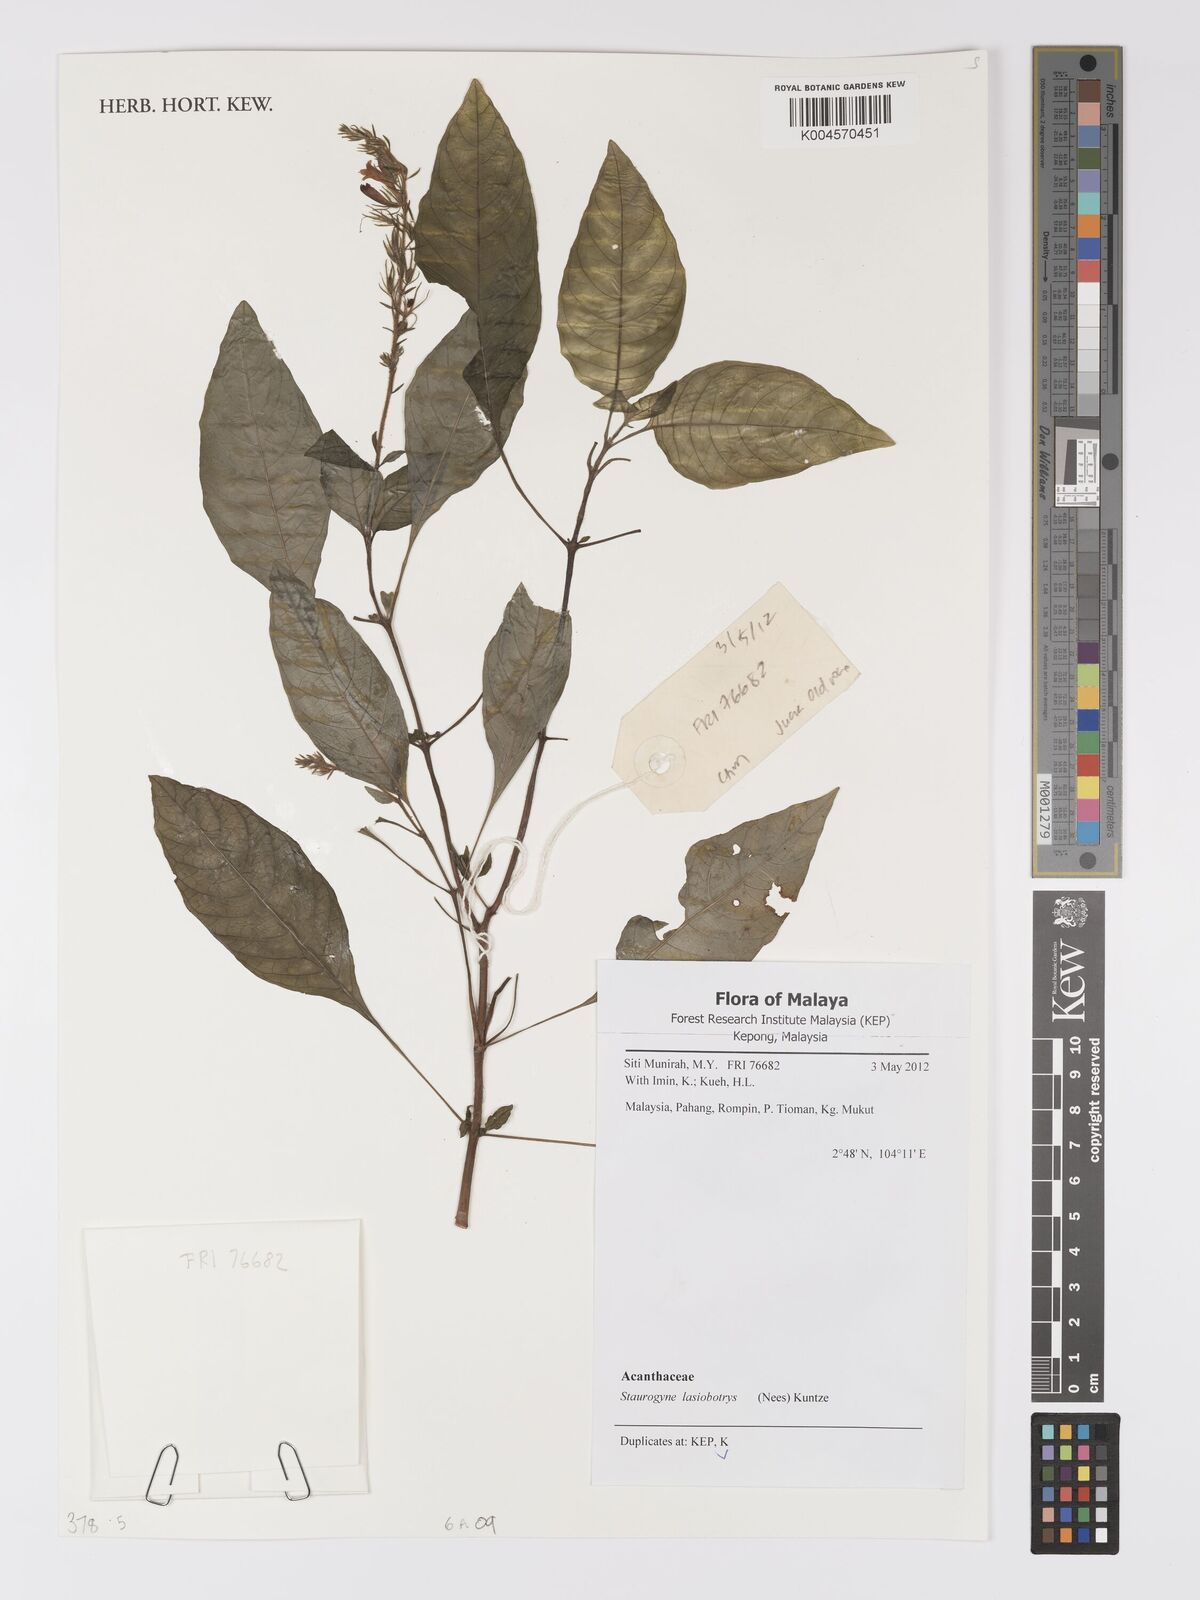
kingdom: Plantae
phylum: Tracheophyta
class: Magnoliopsida
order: Lamiales
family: Acanthaceae
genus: Staurogyne
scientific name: Staurogyne lasiobotrys
